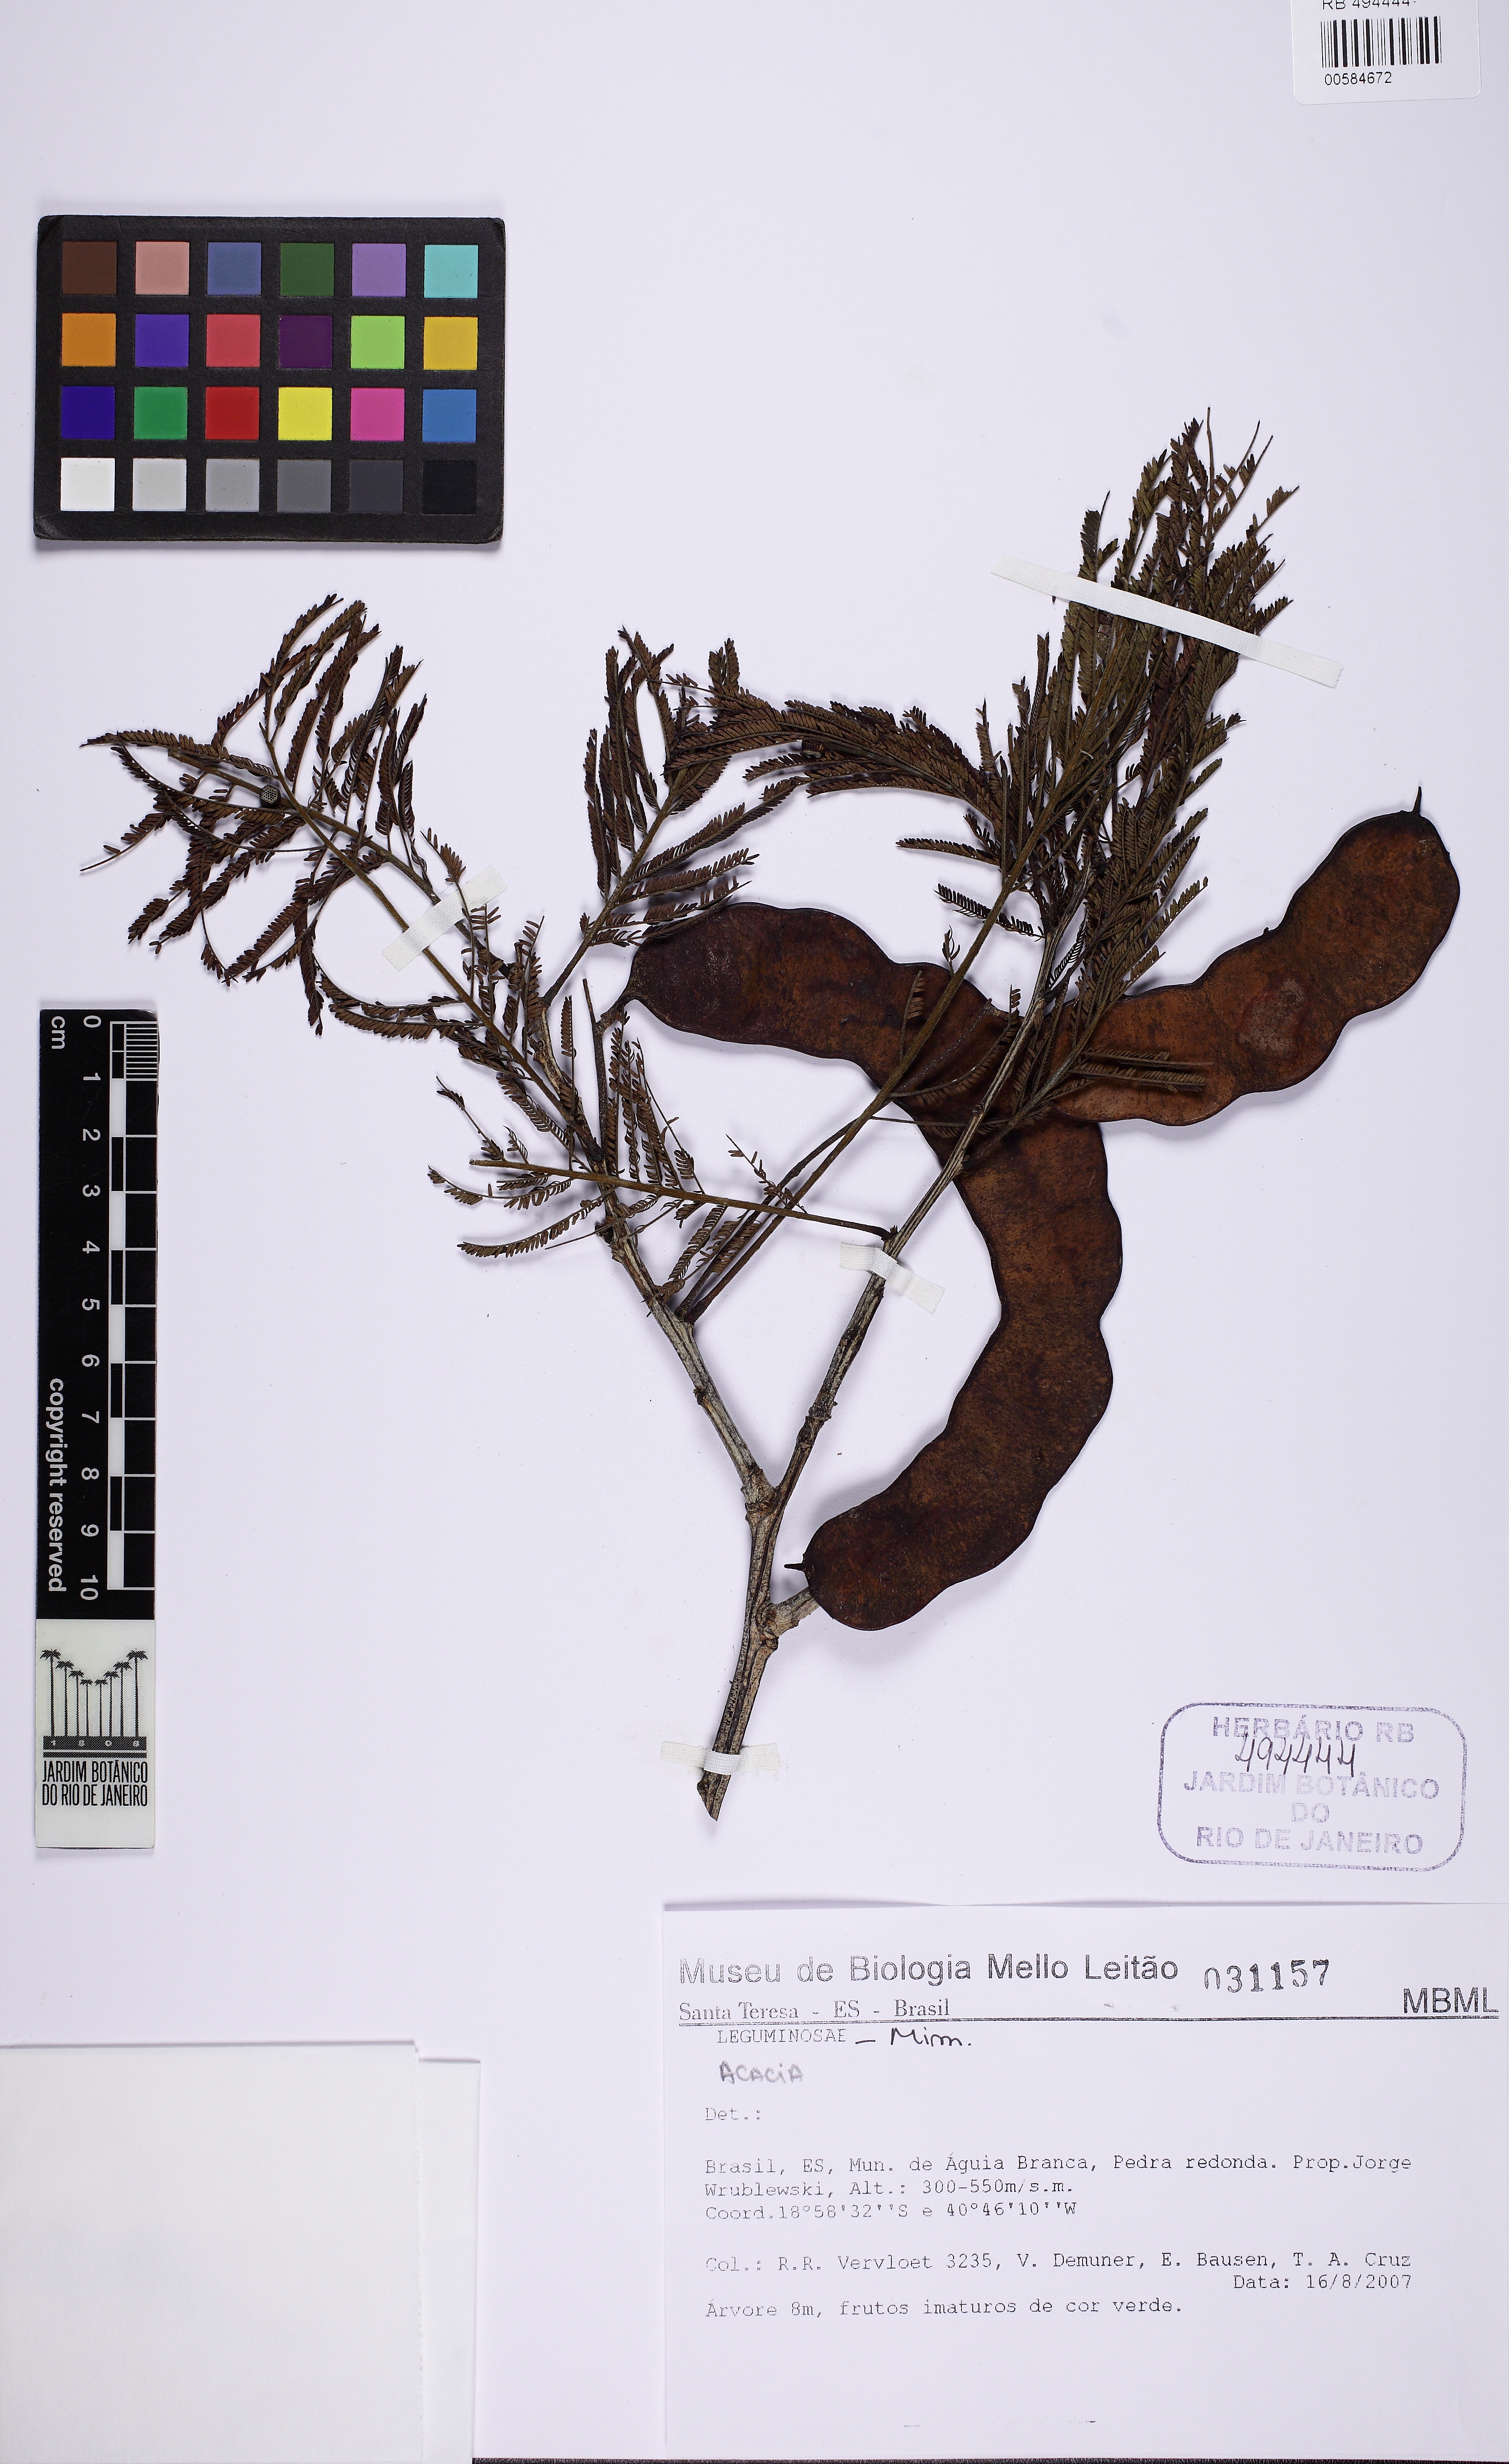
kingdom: Plantae
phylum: Tracheophyta
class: Magnoliopsida
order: Fabales
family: Fabaceae
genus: Anadenanthera
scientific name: Anadenanthera peregrina
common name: Cohoba
